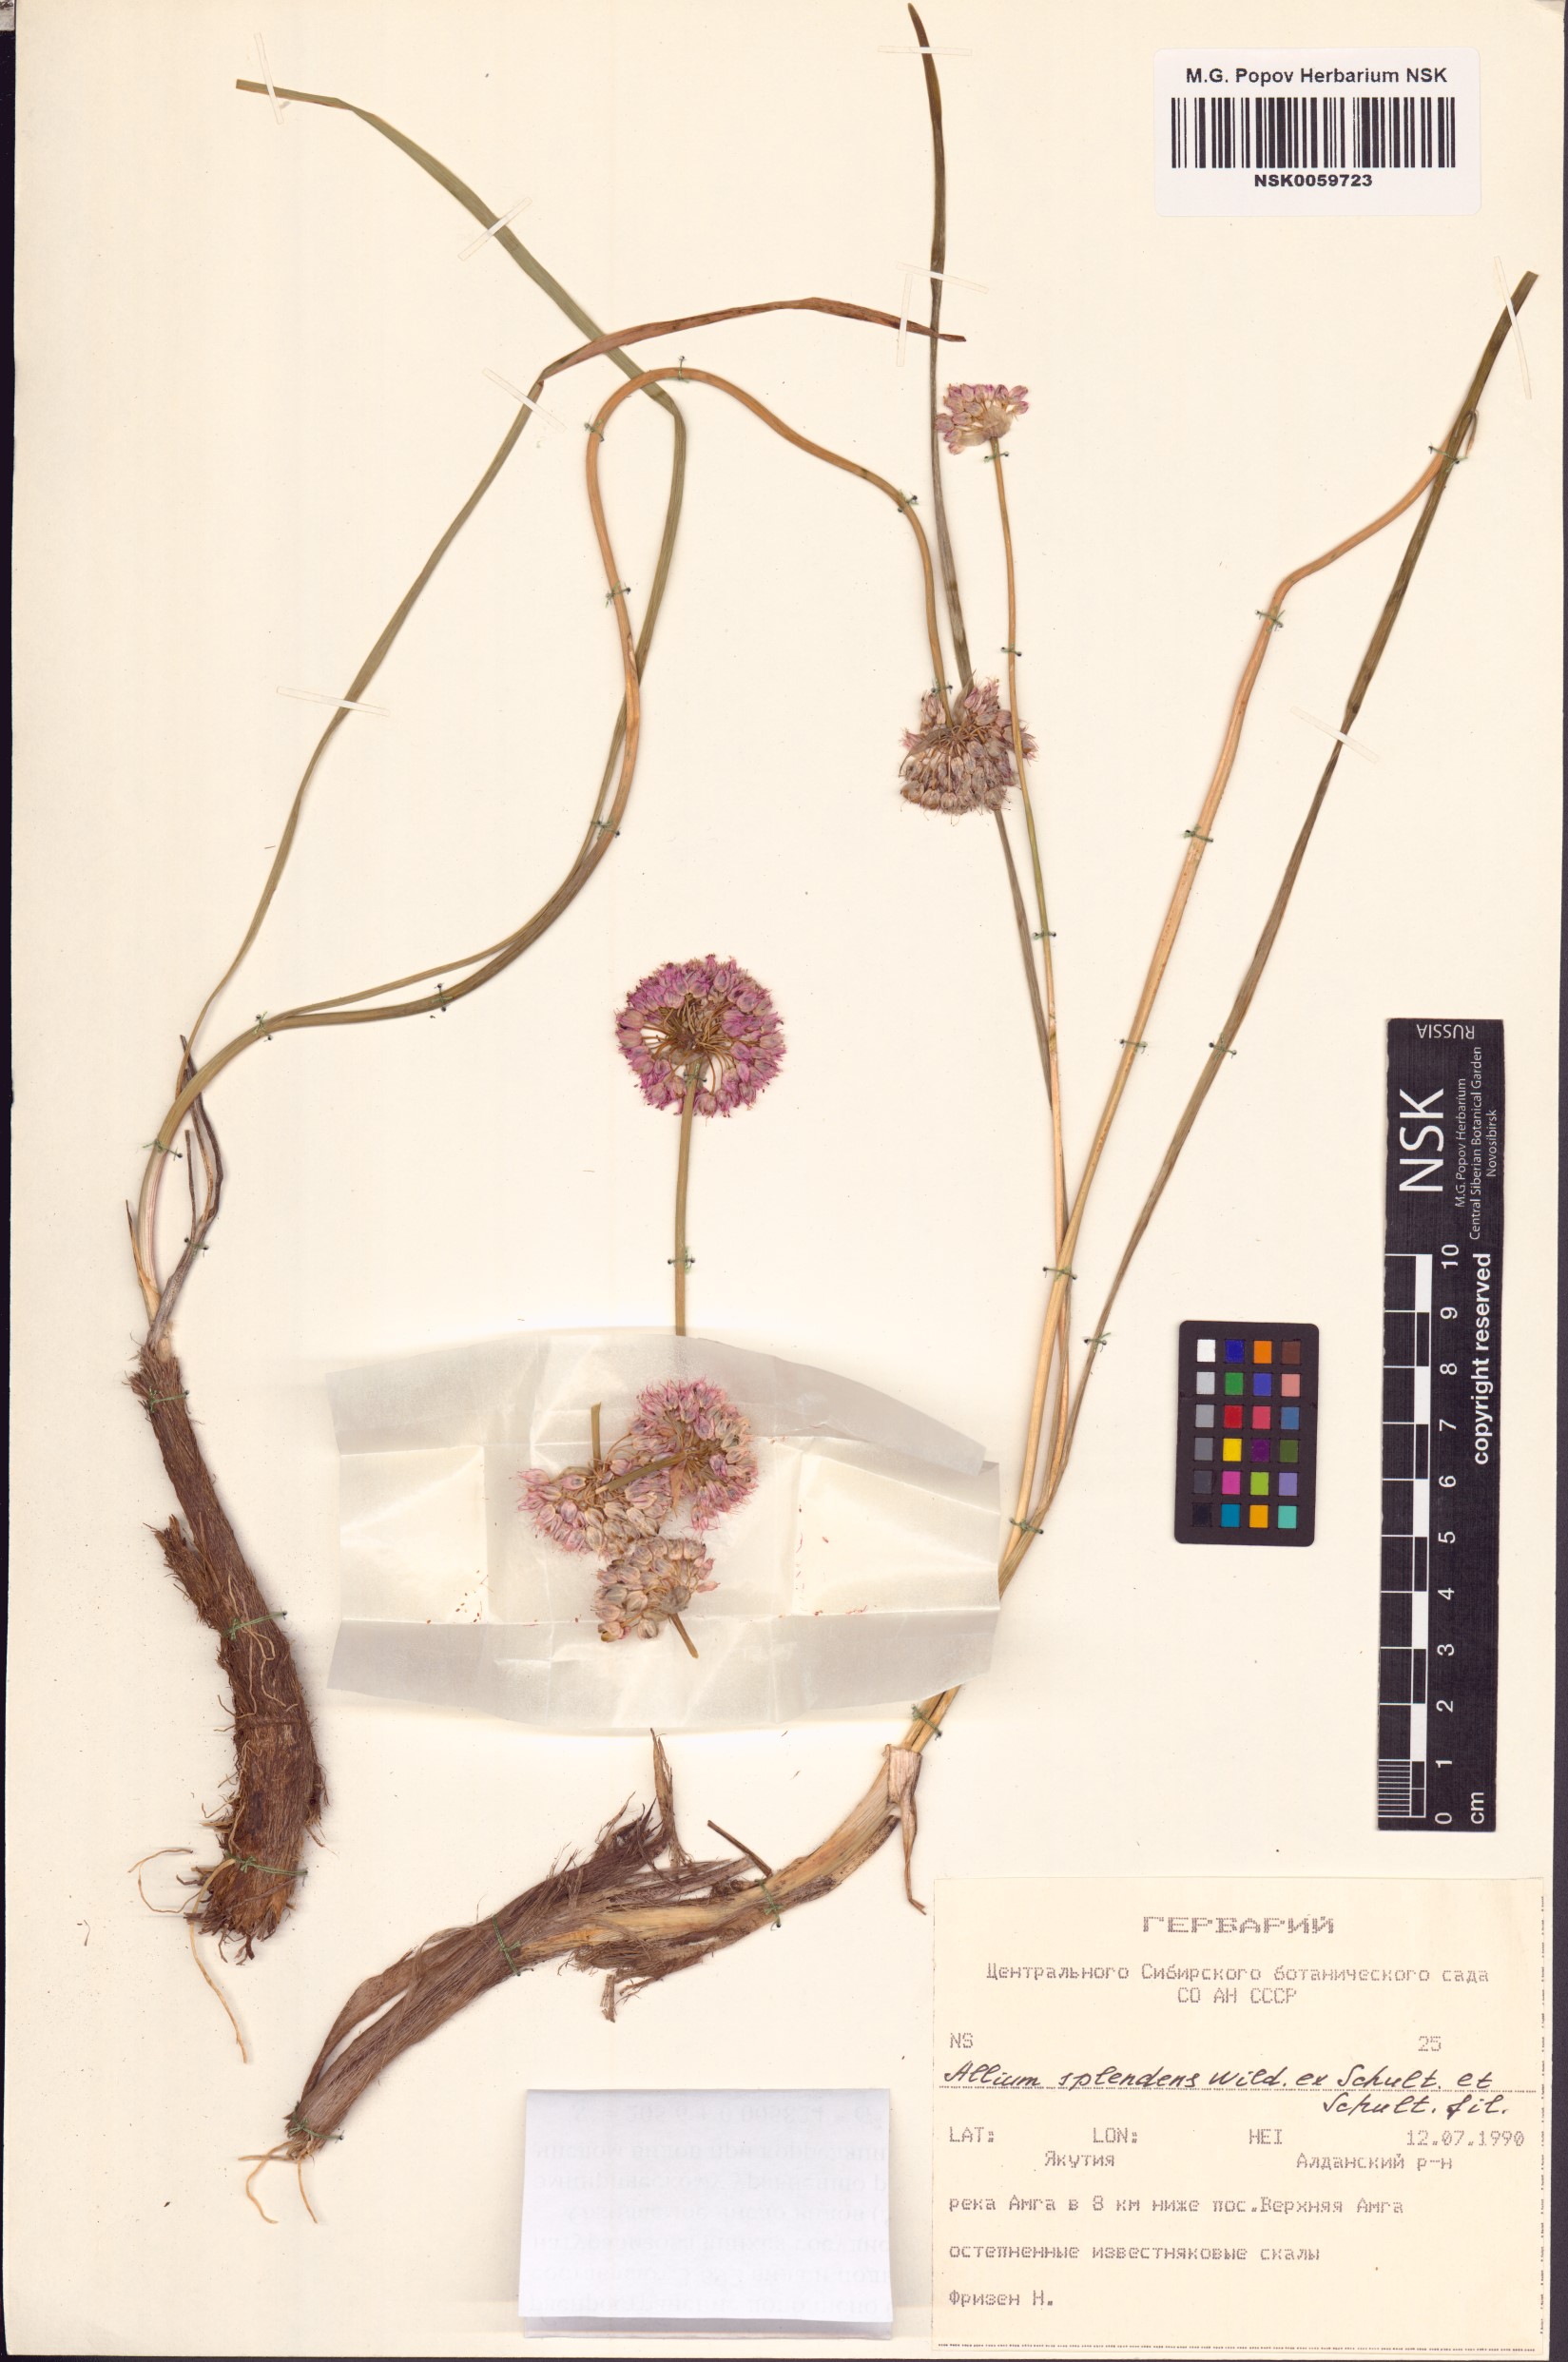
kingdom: Plantae
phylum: Tracheophyta
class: Liliopsida
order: Asparagales
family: Amaryllidaceae
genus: Allium
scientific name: Allium splendens
